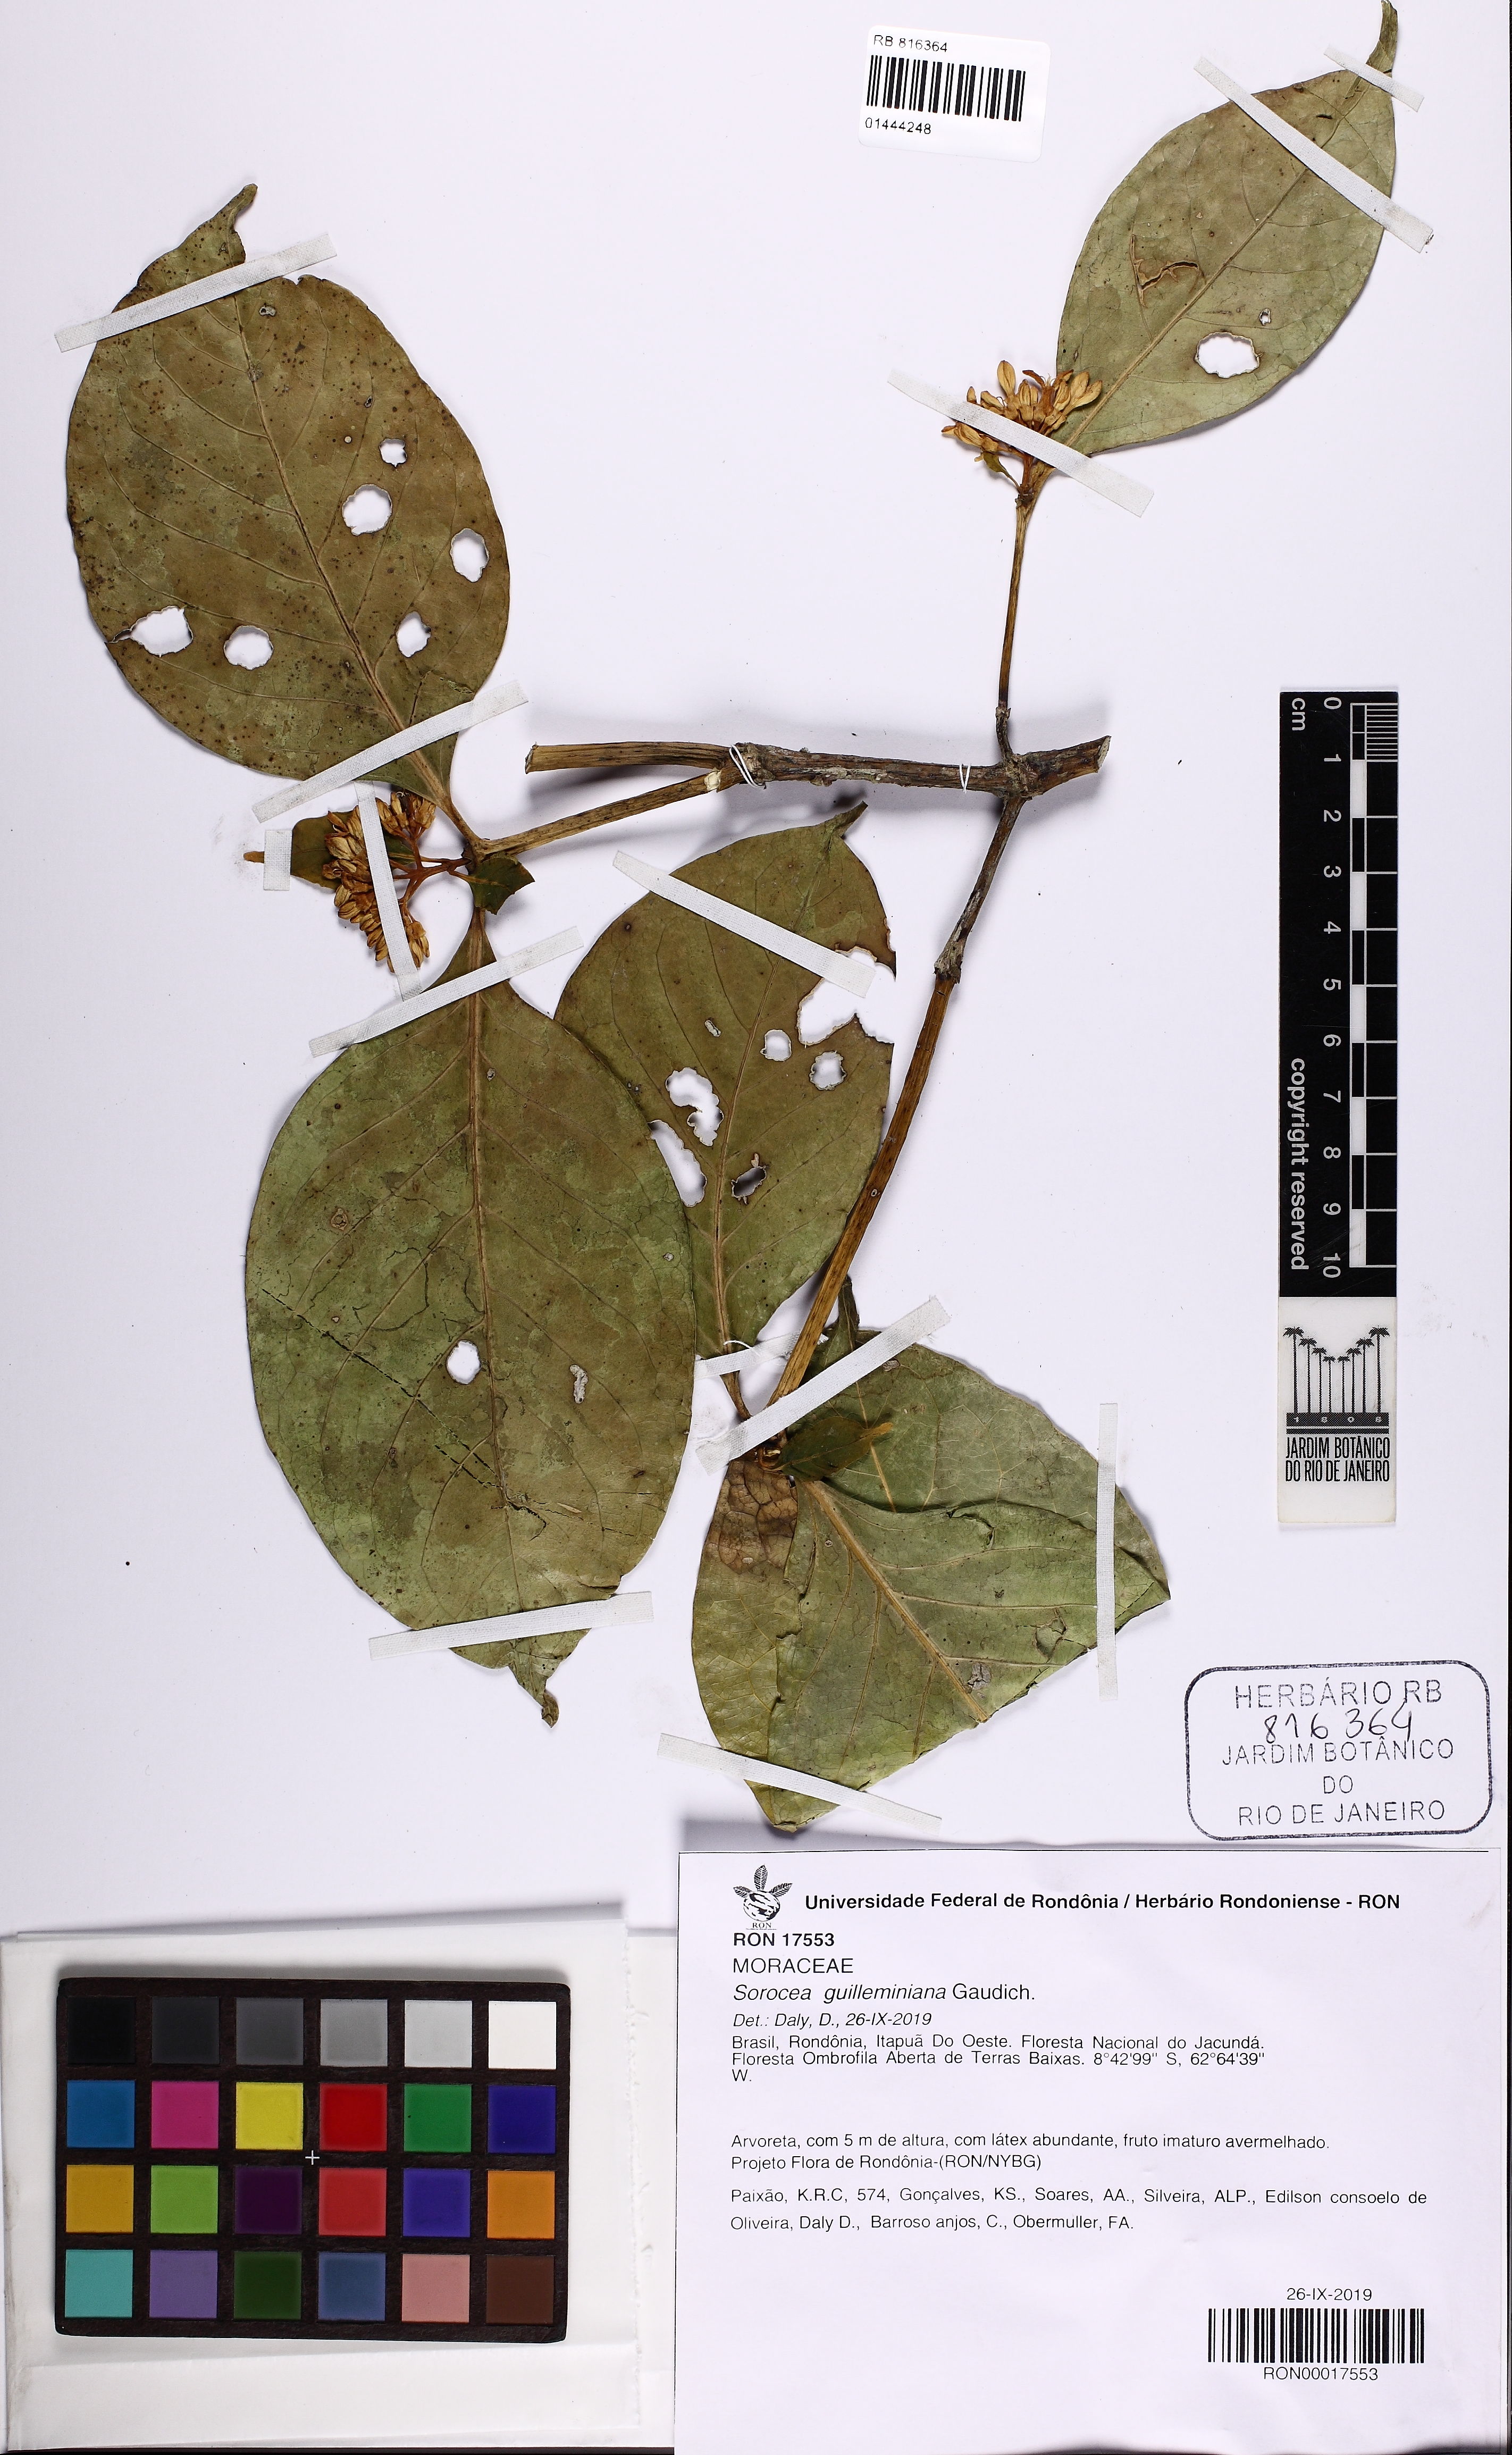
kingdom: Plantae
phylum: Tracheophyta
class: Magnoliopsida
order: Rosales
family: Moraceae
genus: Sorocea
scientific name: Sorocea guilleminiana
